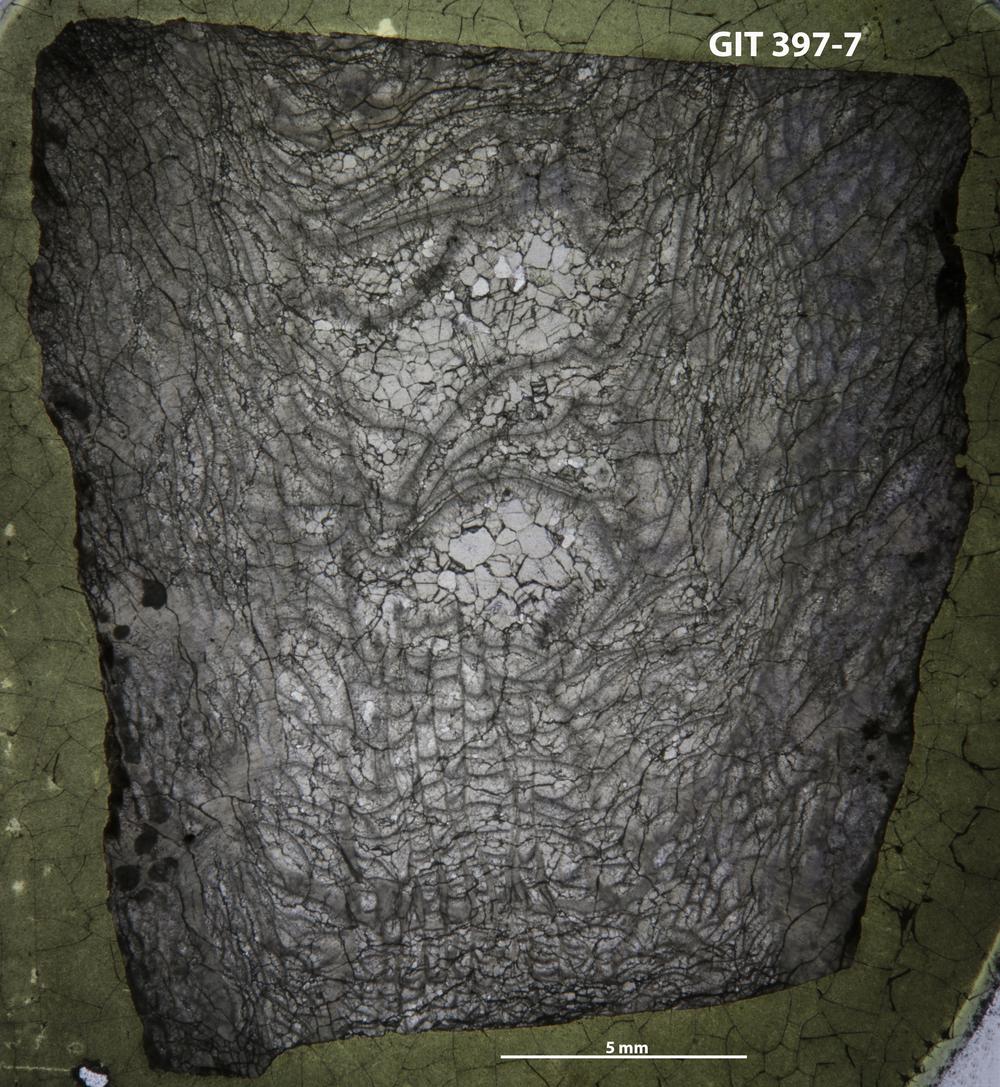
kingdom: Animalia
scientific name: Animalia
